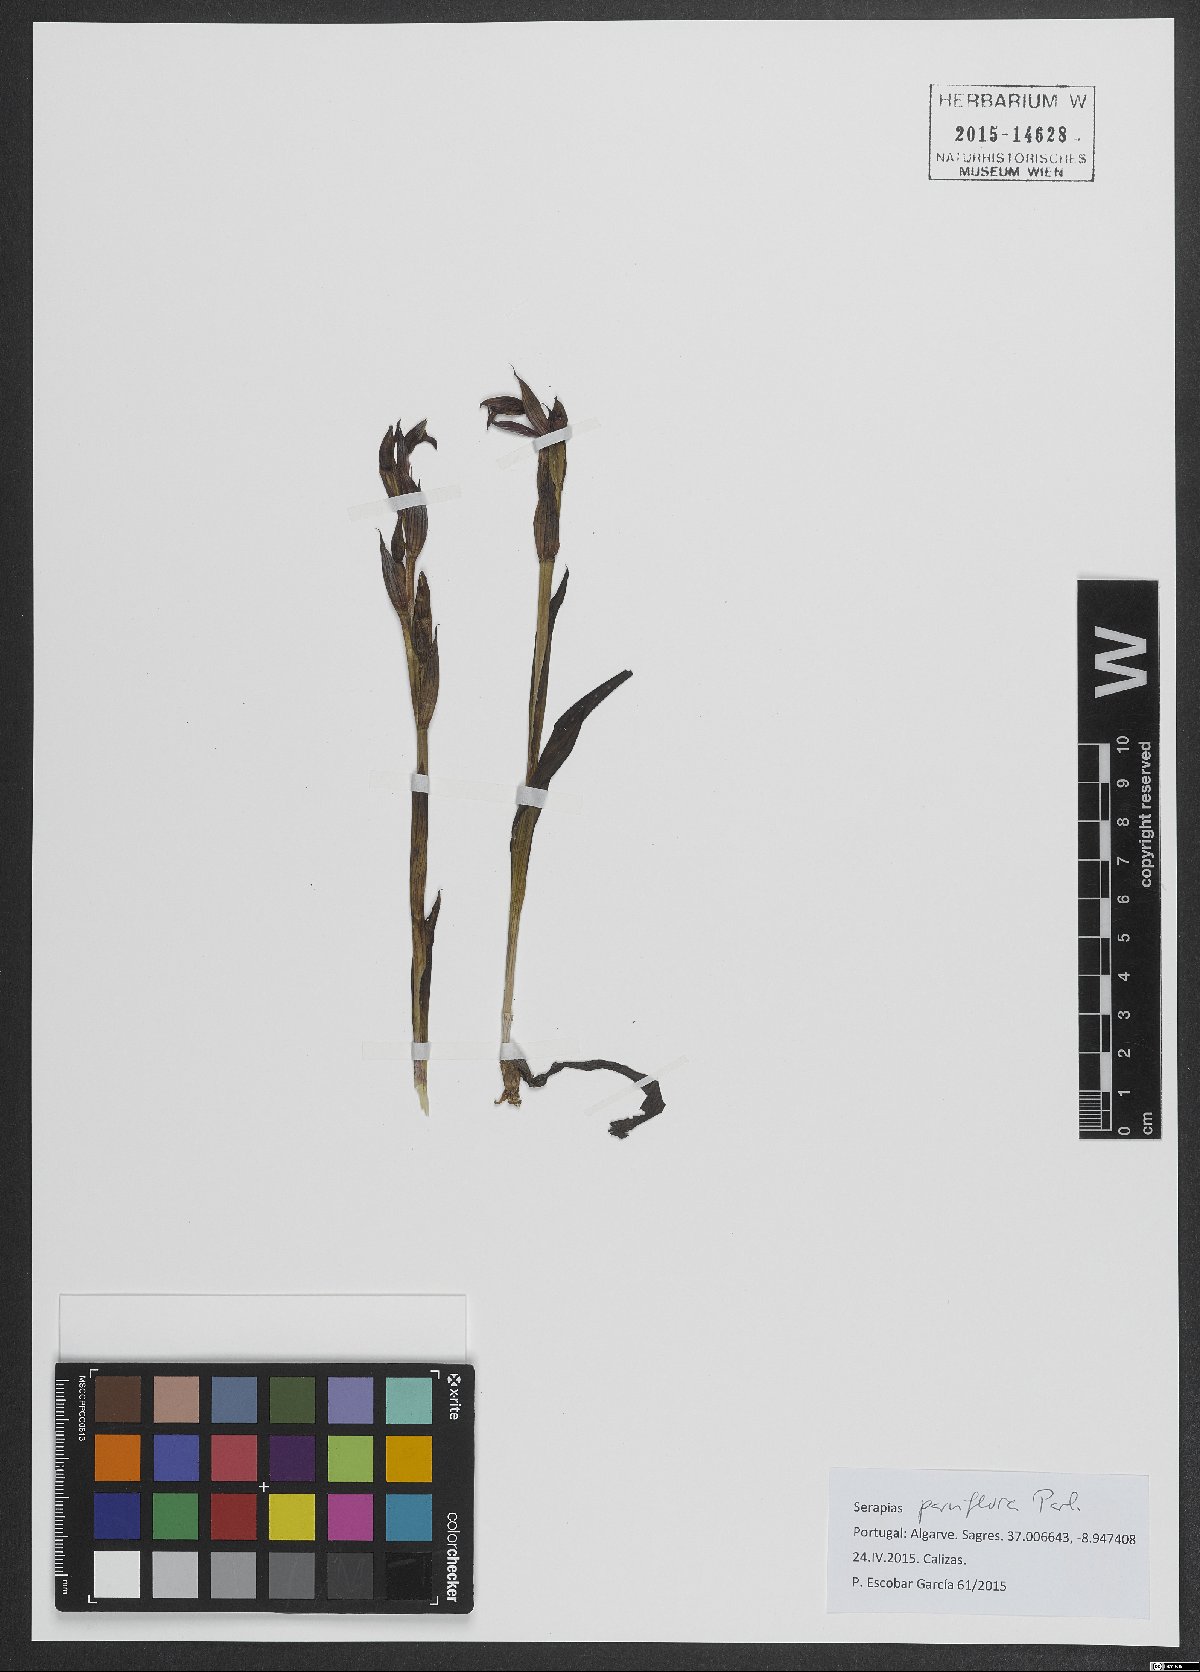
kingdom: Plantae
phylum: Tracheophyta
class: Liliopsida
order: Asparagales
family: Orchidaceae
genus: Serapias
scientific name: Serapias parviflora
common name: Small-flowered tongue-orchid
